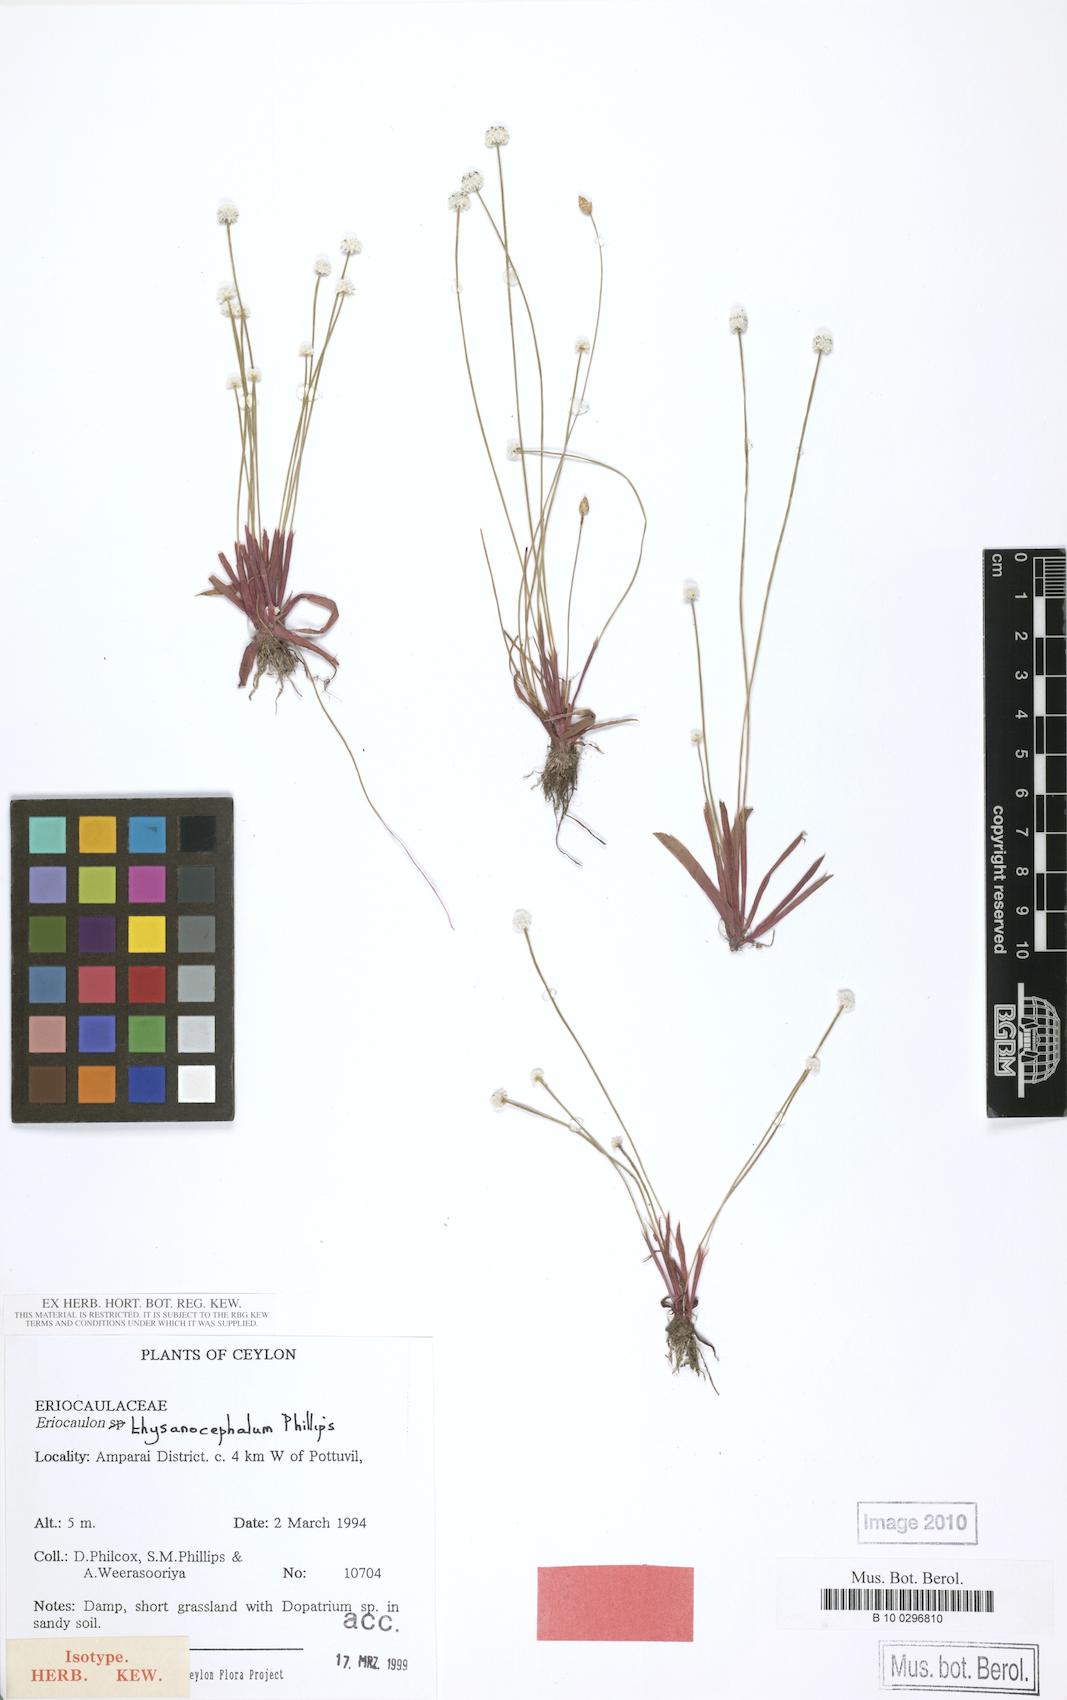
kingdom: Plantae
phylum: Tracheophyta
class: Liliopsida
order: Poales
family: Eriocaulaceae
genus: Eriocaulon
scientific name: Eriocaulon thysanocephalum
